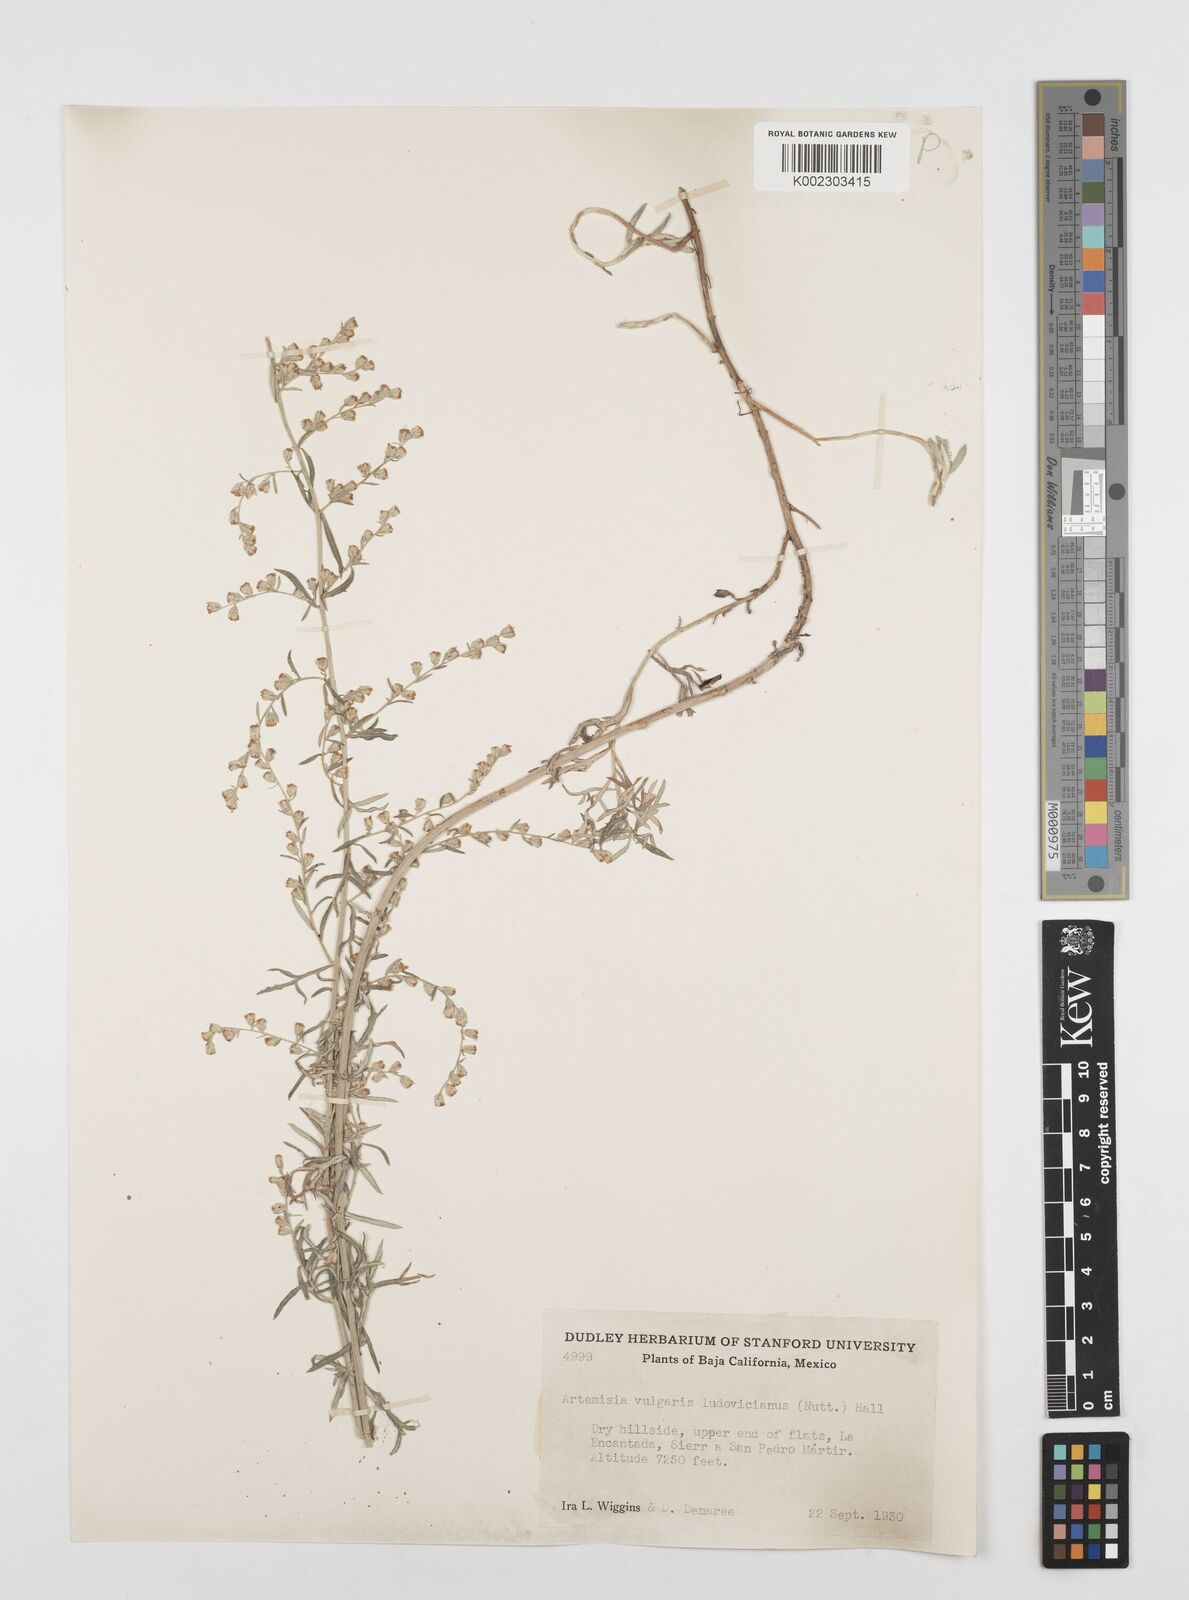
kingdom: Plantae
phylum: Tracheophyta
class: Magnoliopsida
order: Asterales
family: Asteraceae
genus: Artemisia
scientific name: Artemisia ludoviciana
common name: Western mugwort
